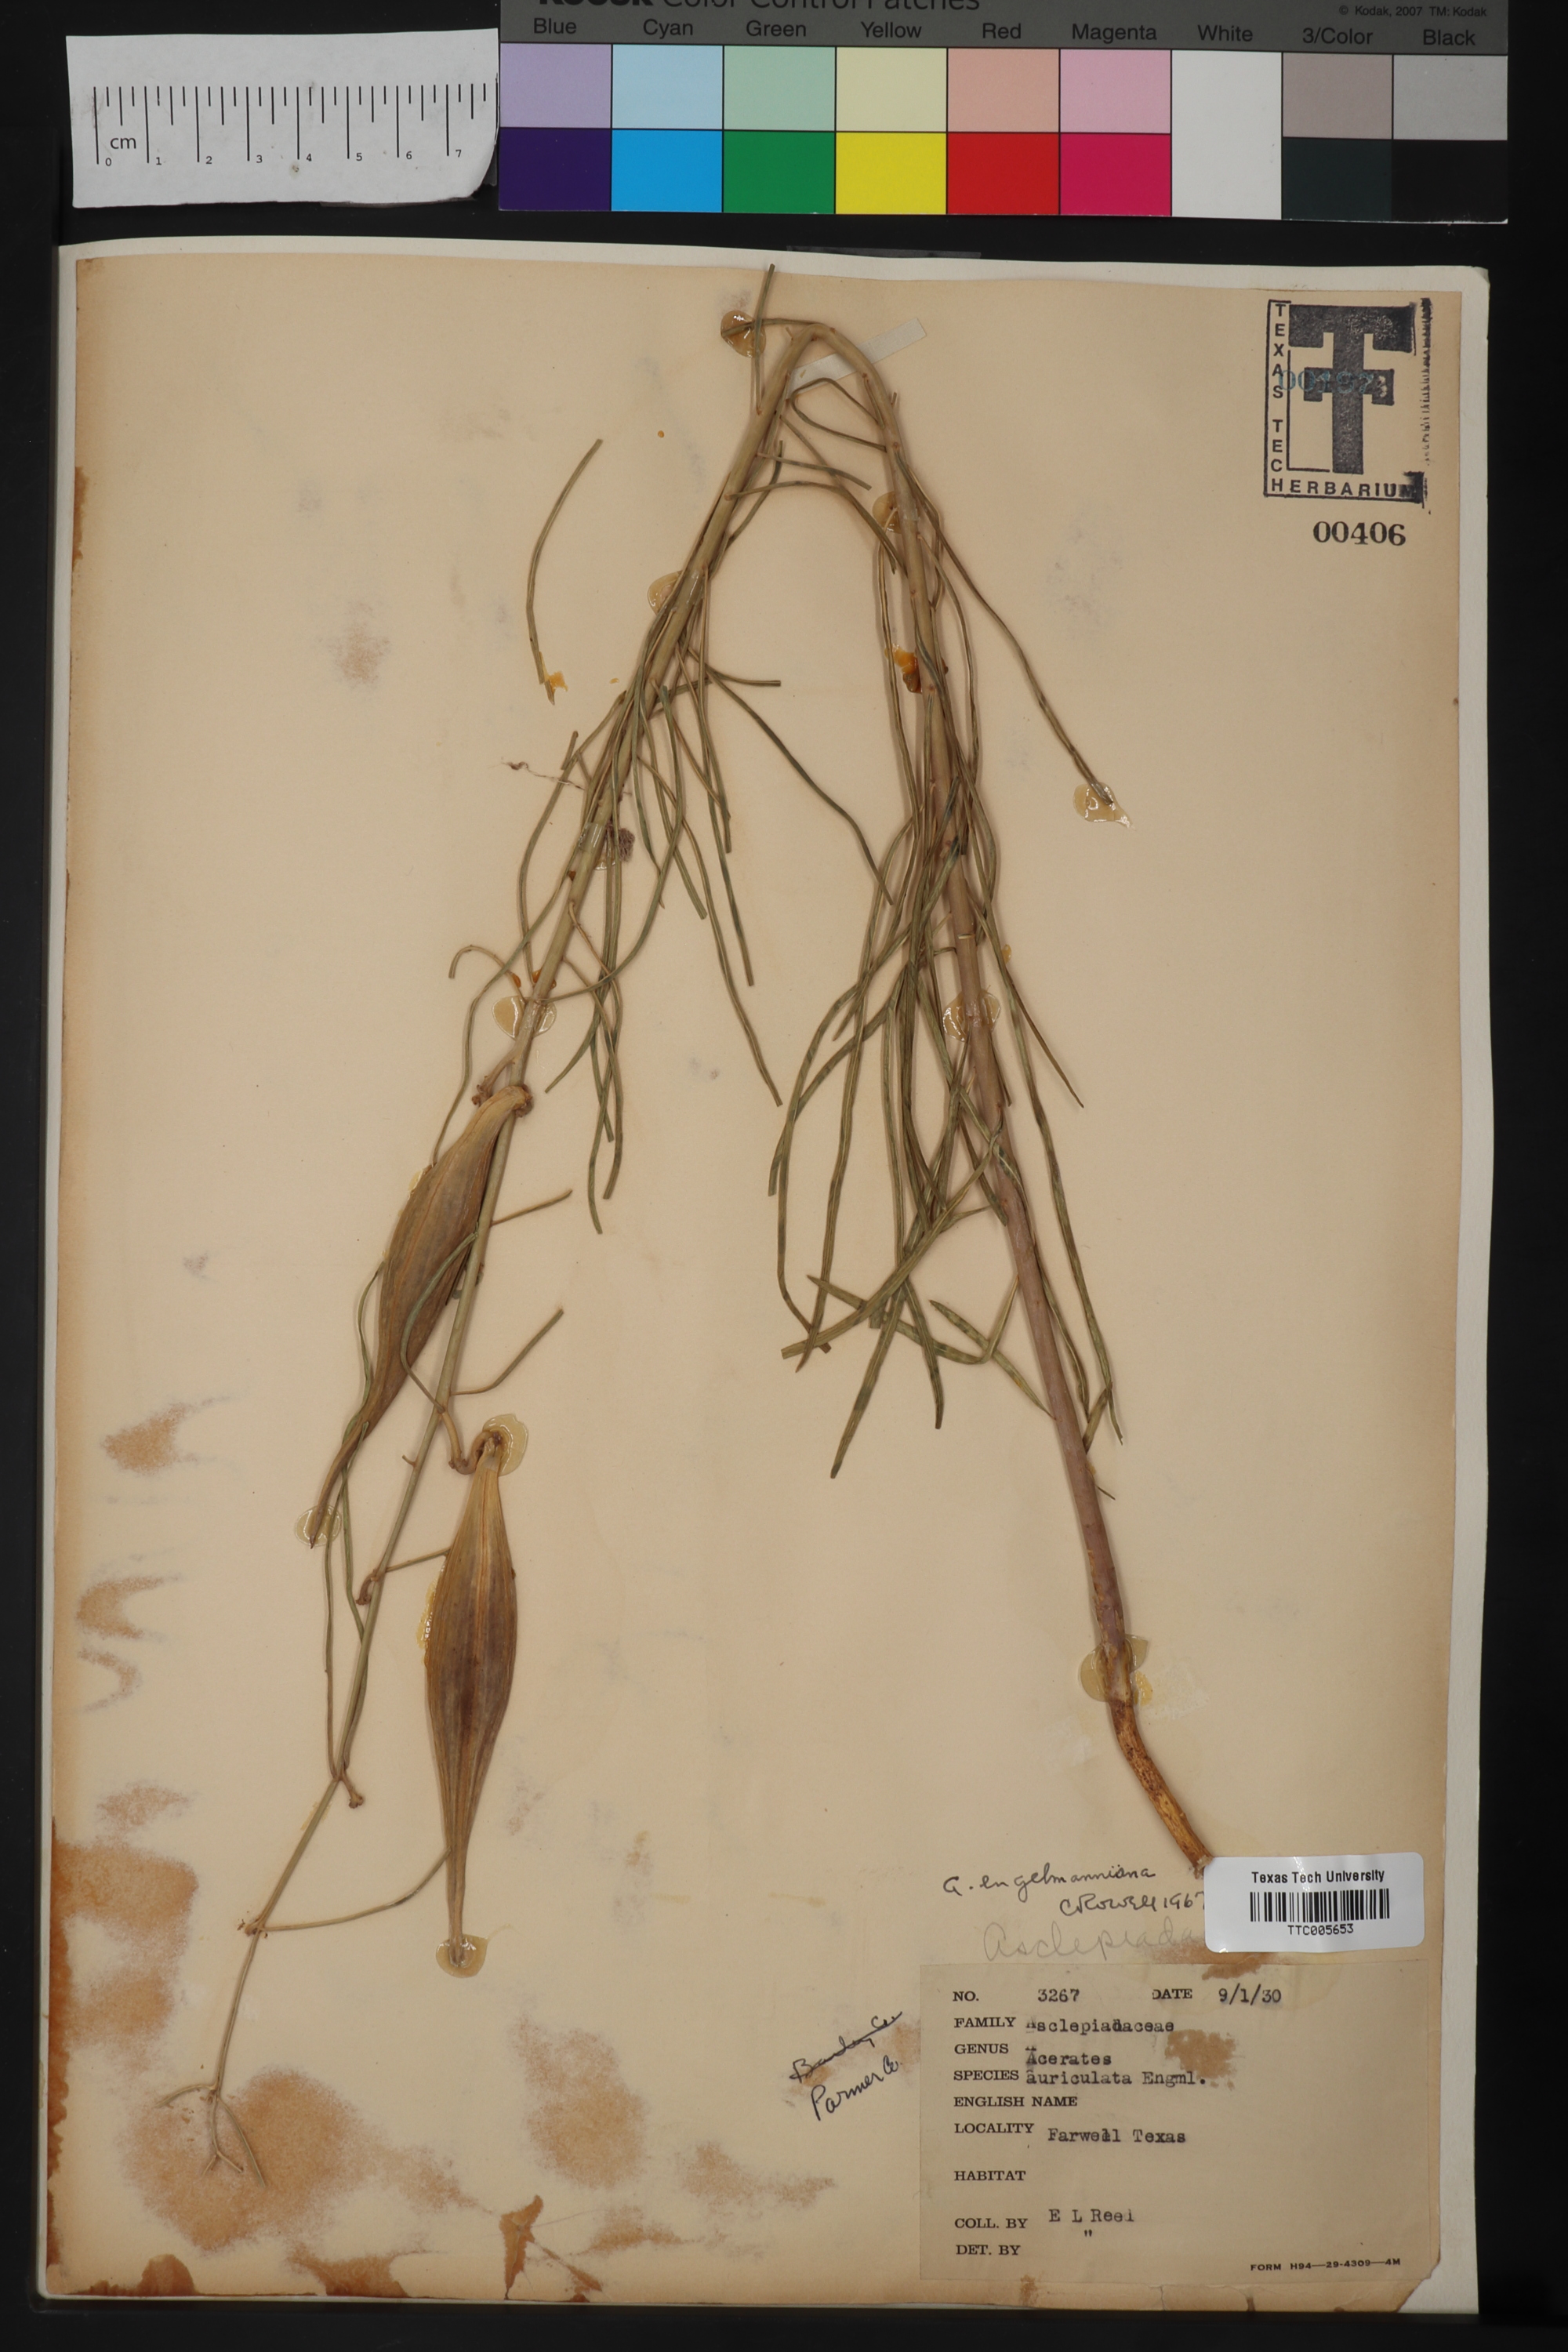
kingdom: Plantae
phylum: Tracheophyta
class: Magnoliopsida
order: Gentianales
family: Apocynaceae
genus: Asclepias
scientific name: Asclepias Acerates engelmanniana
